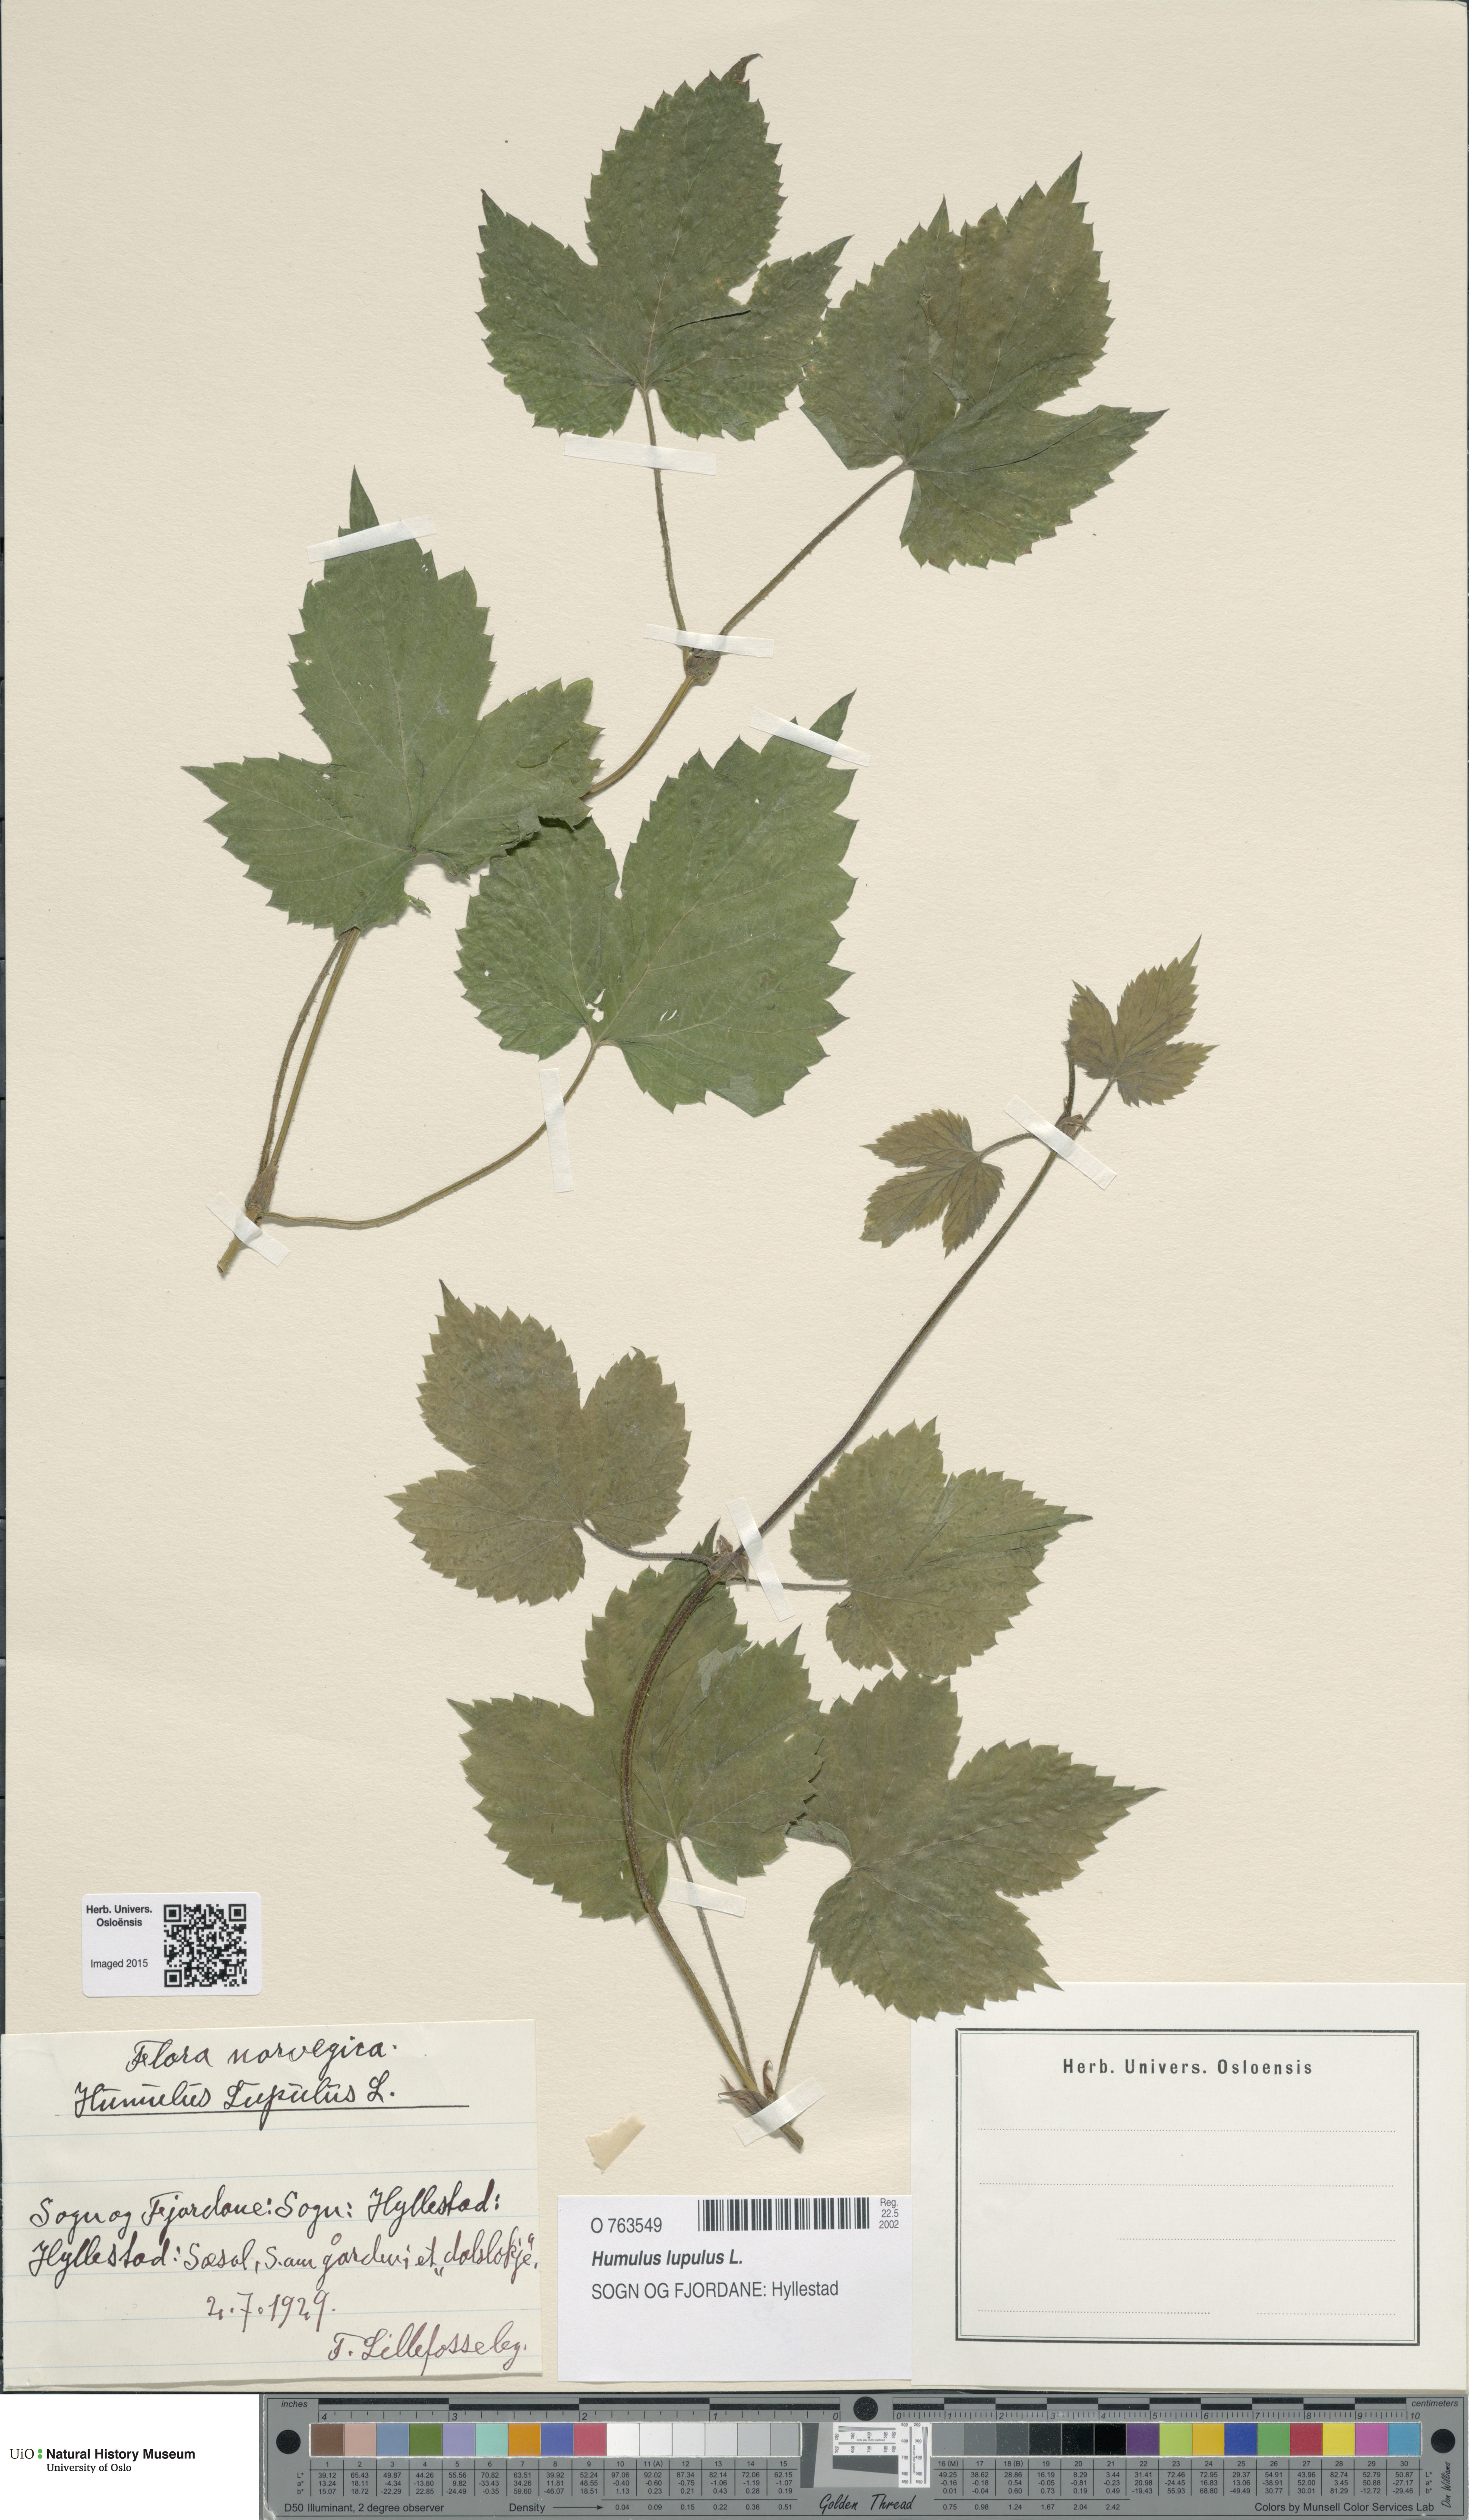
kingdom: Plantae
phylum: Tracheophyta
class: Magnoliopsida
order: Rosales
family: Cannabaceae
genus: Humulus
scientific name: Humulus lupulus
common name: Hop
